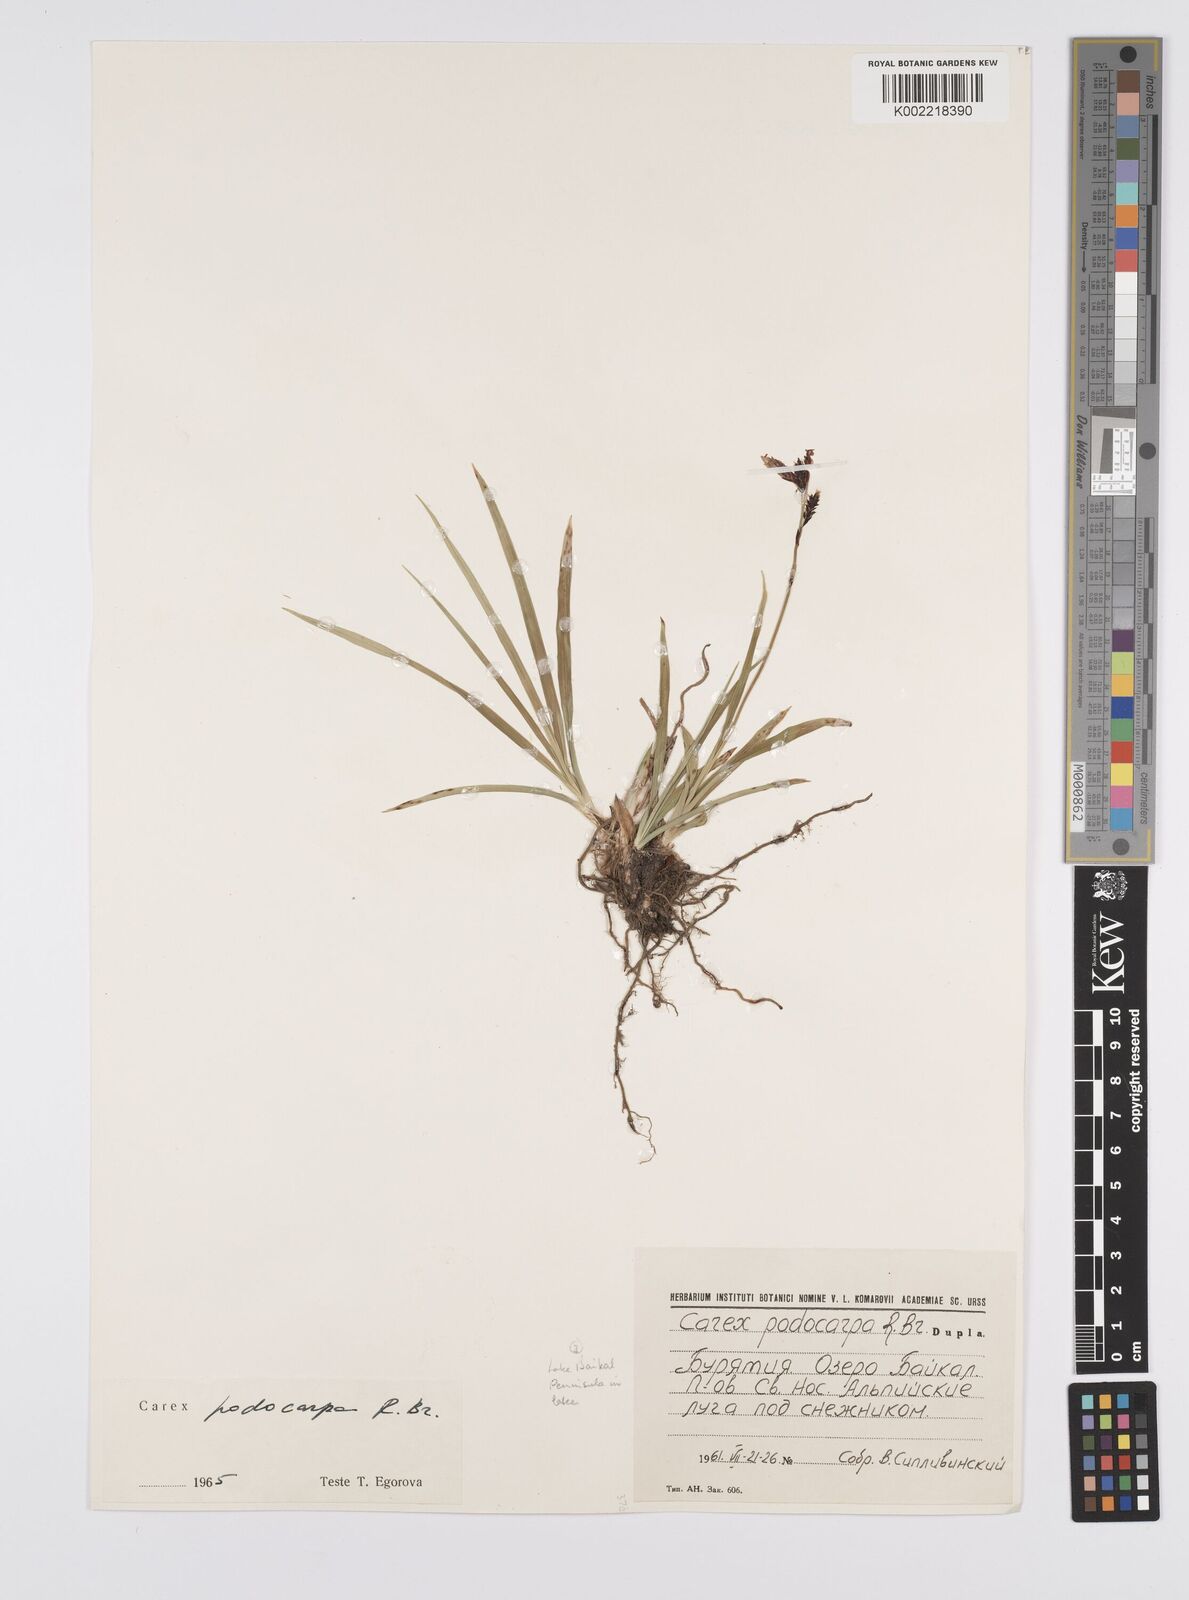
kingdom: Plantae
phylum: Tracheophyta
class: Liliopsida
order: Poales
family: Cyperaceae
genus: Carex
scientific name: Carex podocarpa
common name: Alpine sedge
